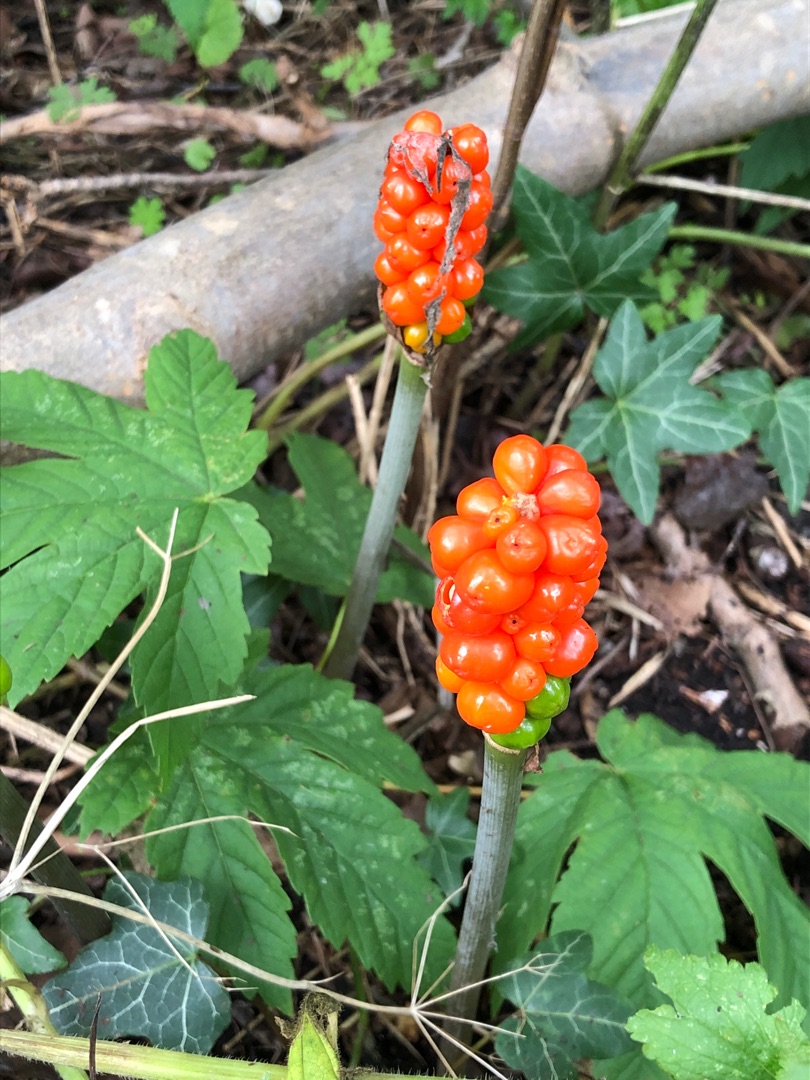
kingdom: Plantae
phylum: Tracheophyta
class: Liliopsida
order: Alismatales
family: Araceae
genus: Arum
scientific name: Arum
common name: Arumslægten
